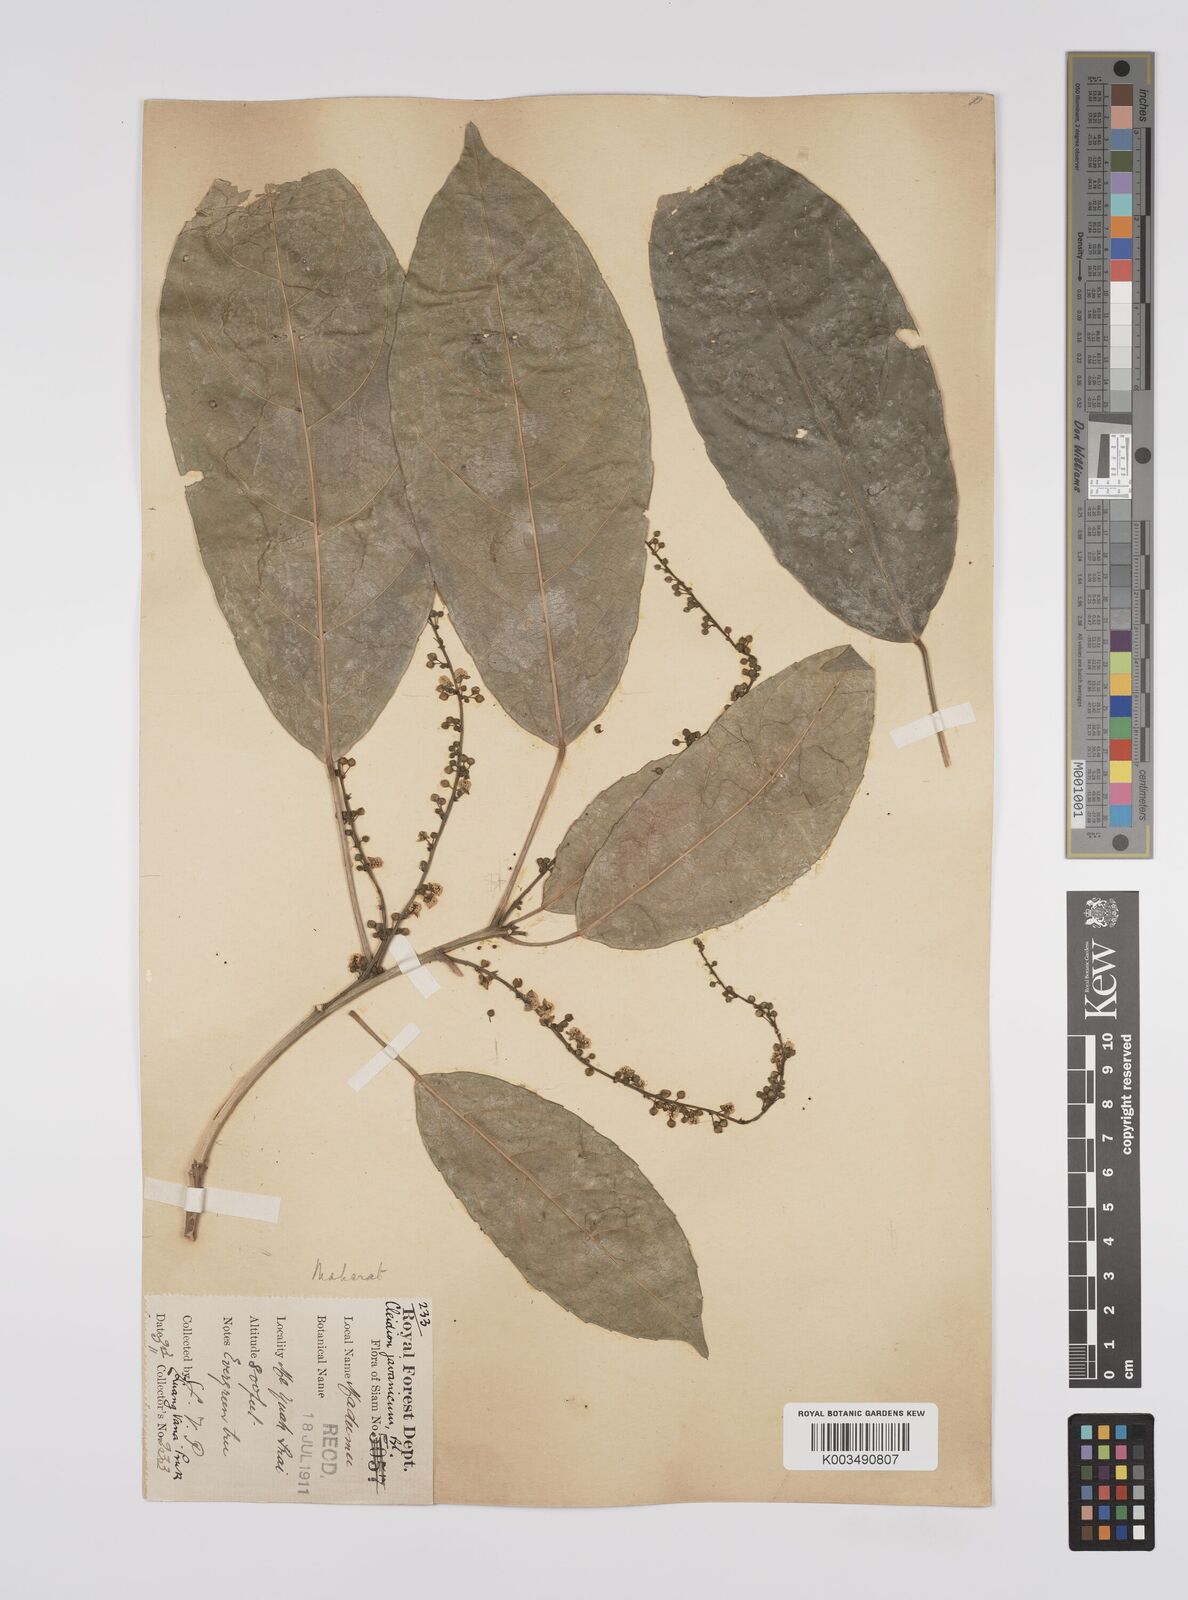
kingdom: Plantae
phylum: Tracheophyta
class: Magnoliopsida
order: Malpighiales
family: Euphorbiaceae
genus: Acalypha
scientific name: Acalypha spiciflora
